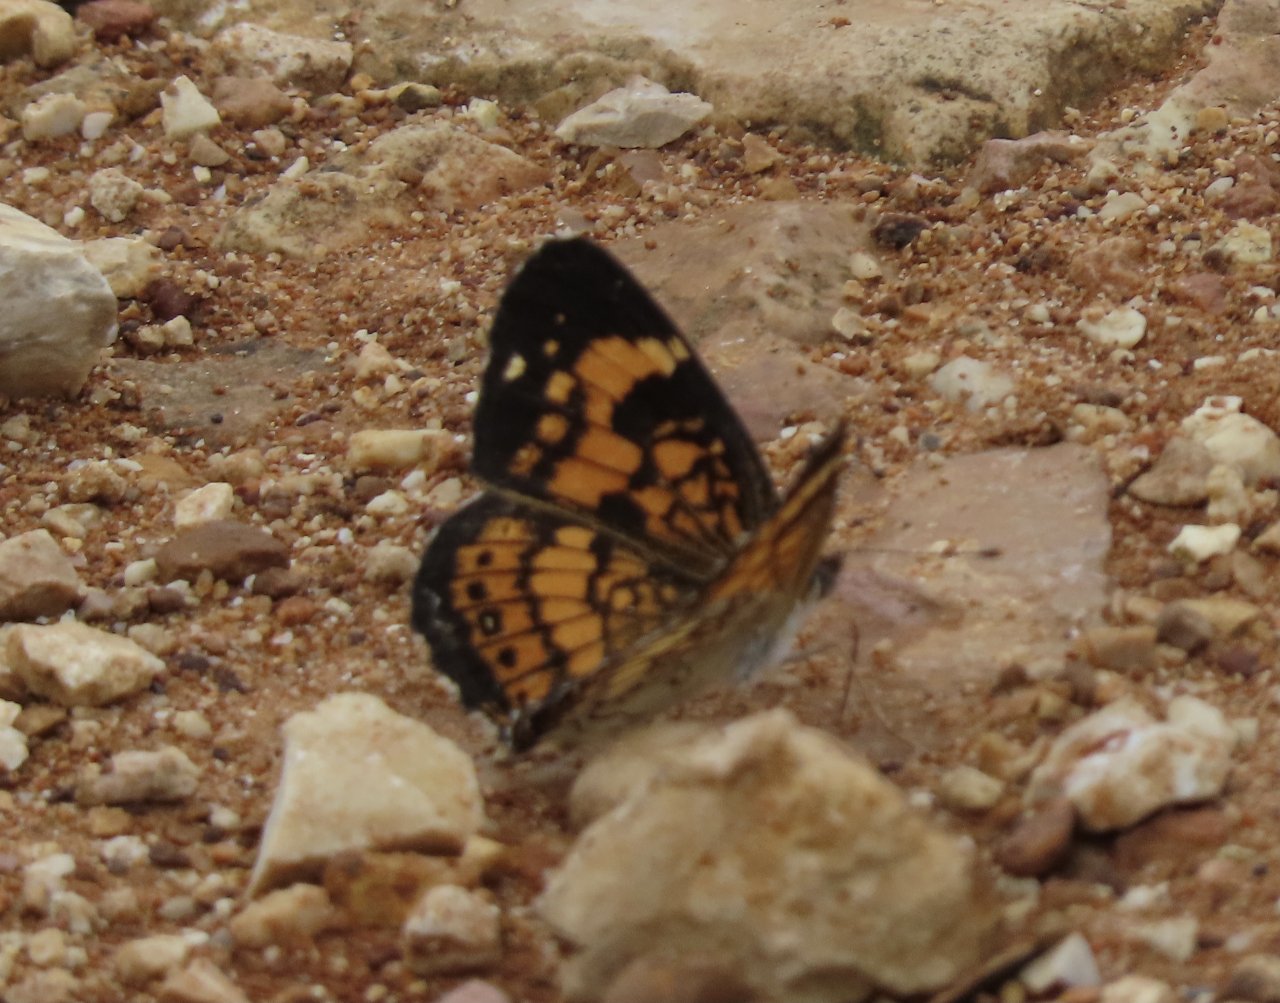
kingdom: Animalia
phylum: Arthropoda
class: Insecta
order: Lepidoptera
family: Nymphalidae
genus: Chlosyne
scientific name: Chlosyne nycteis
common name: Silvery Checkerspot
